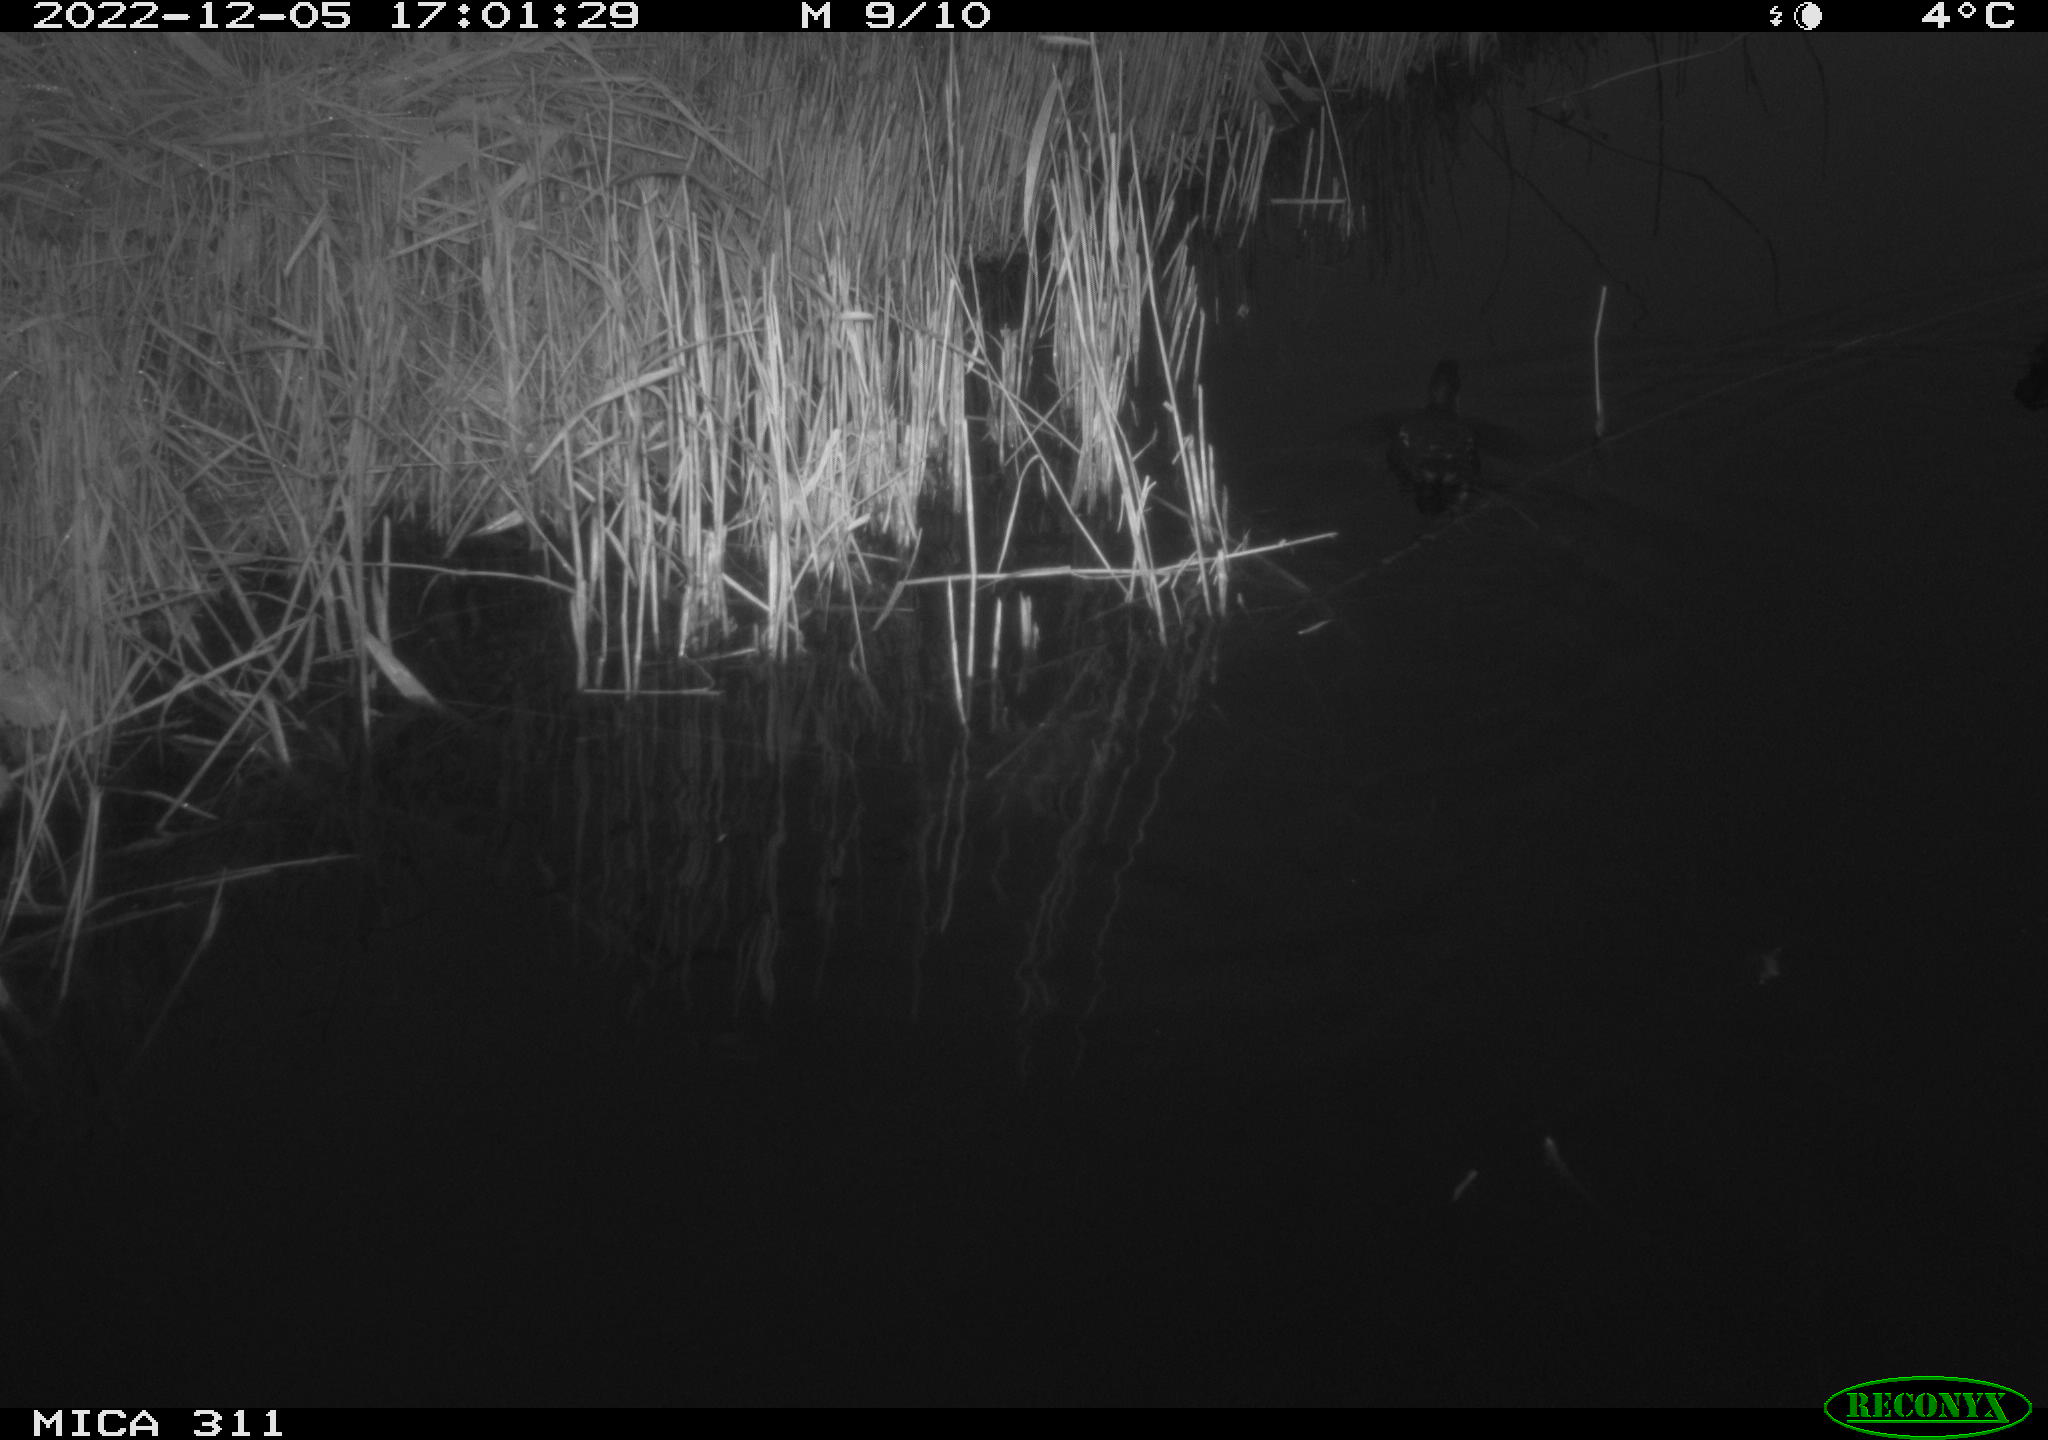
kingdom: Animalia
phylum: Chordata
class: Aves
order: Gruiformes
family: Rallidae
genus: Gallinula
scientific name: Gallinula chloropus
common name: Common moorhen
